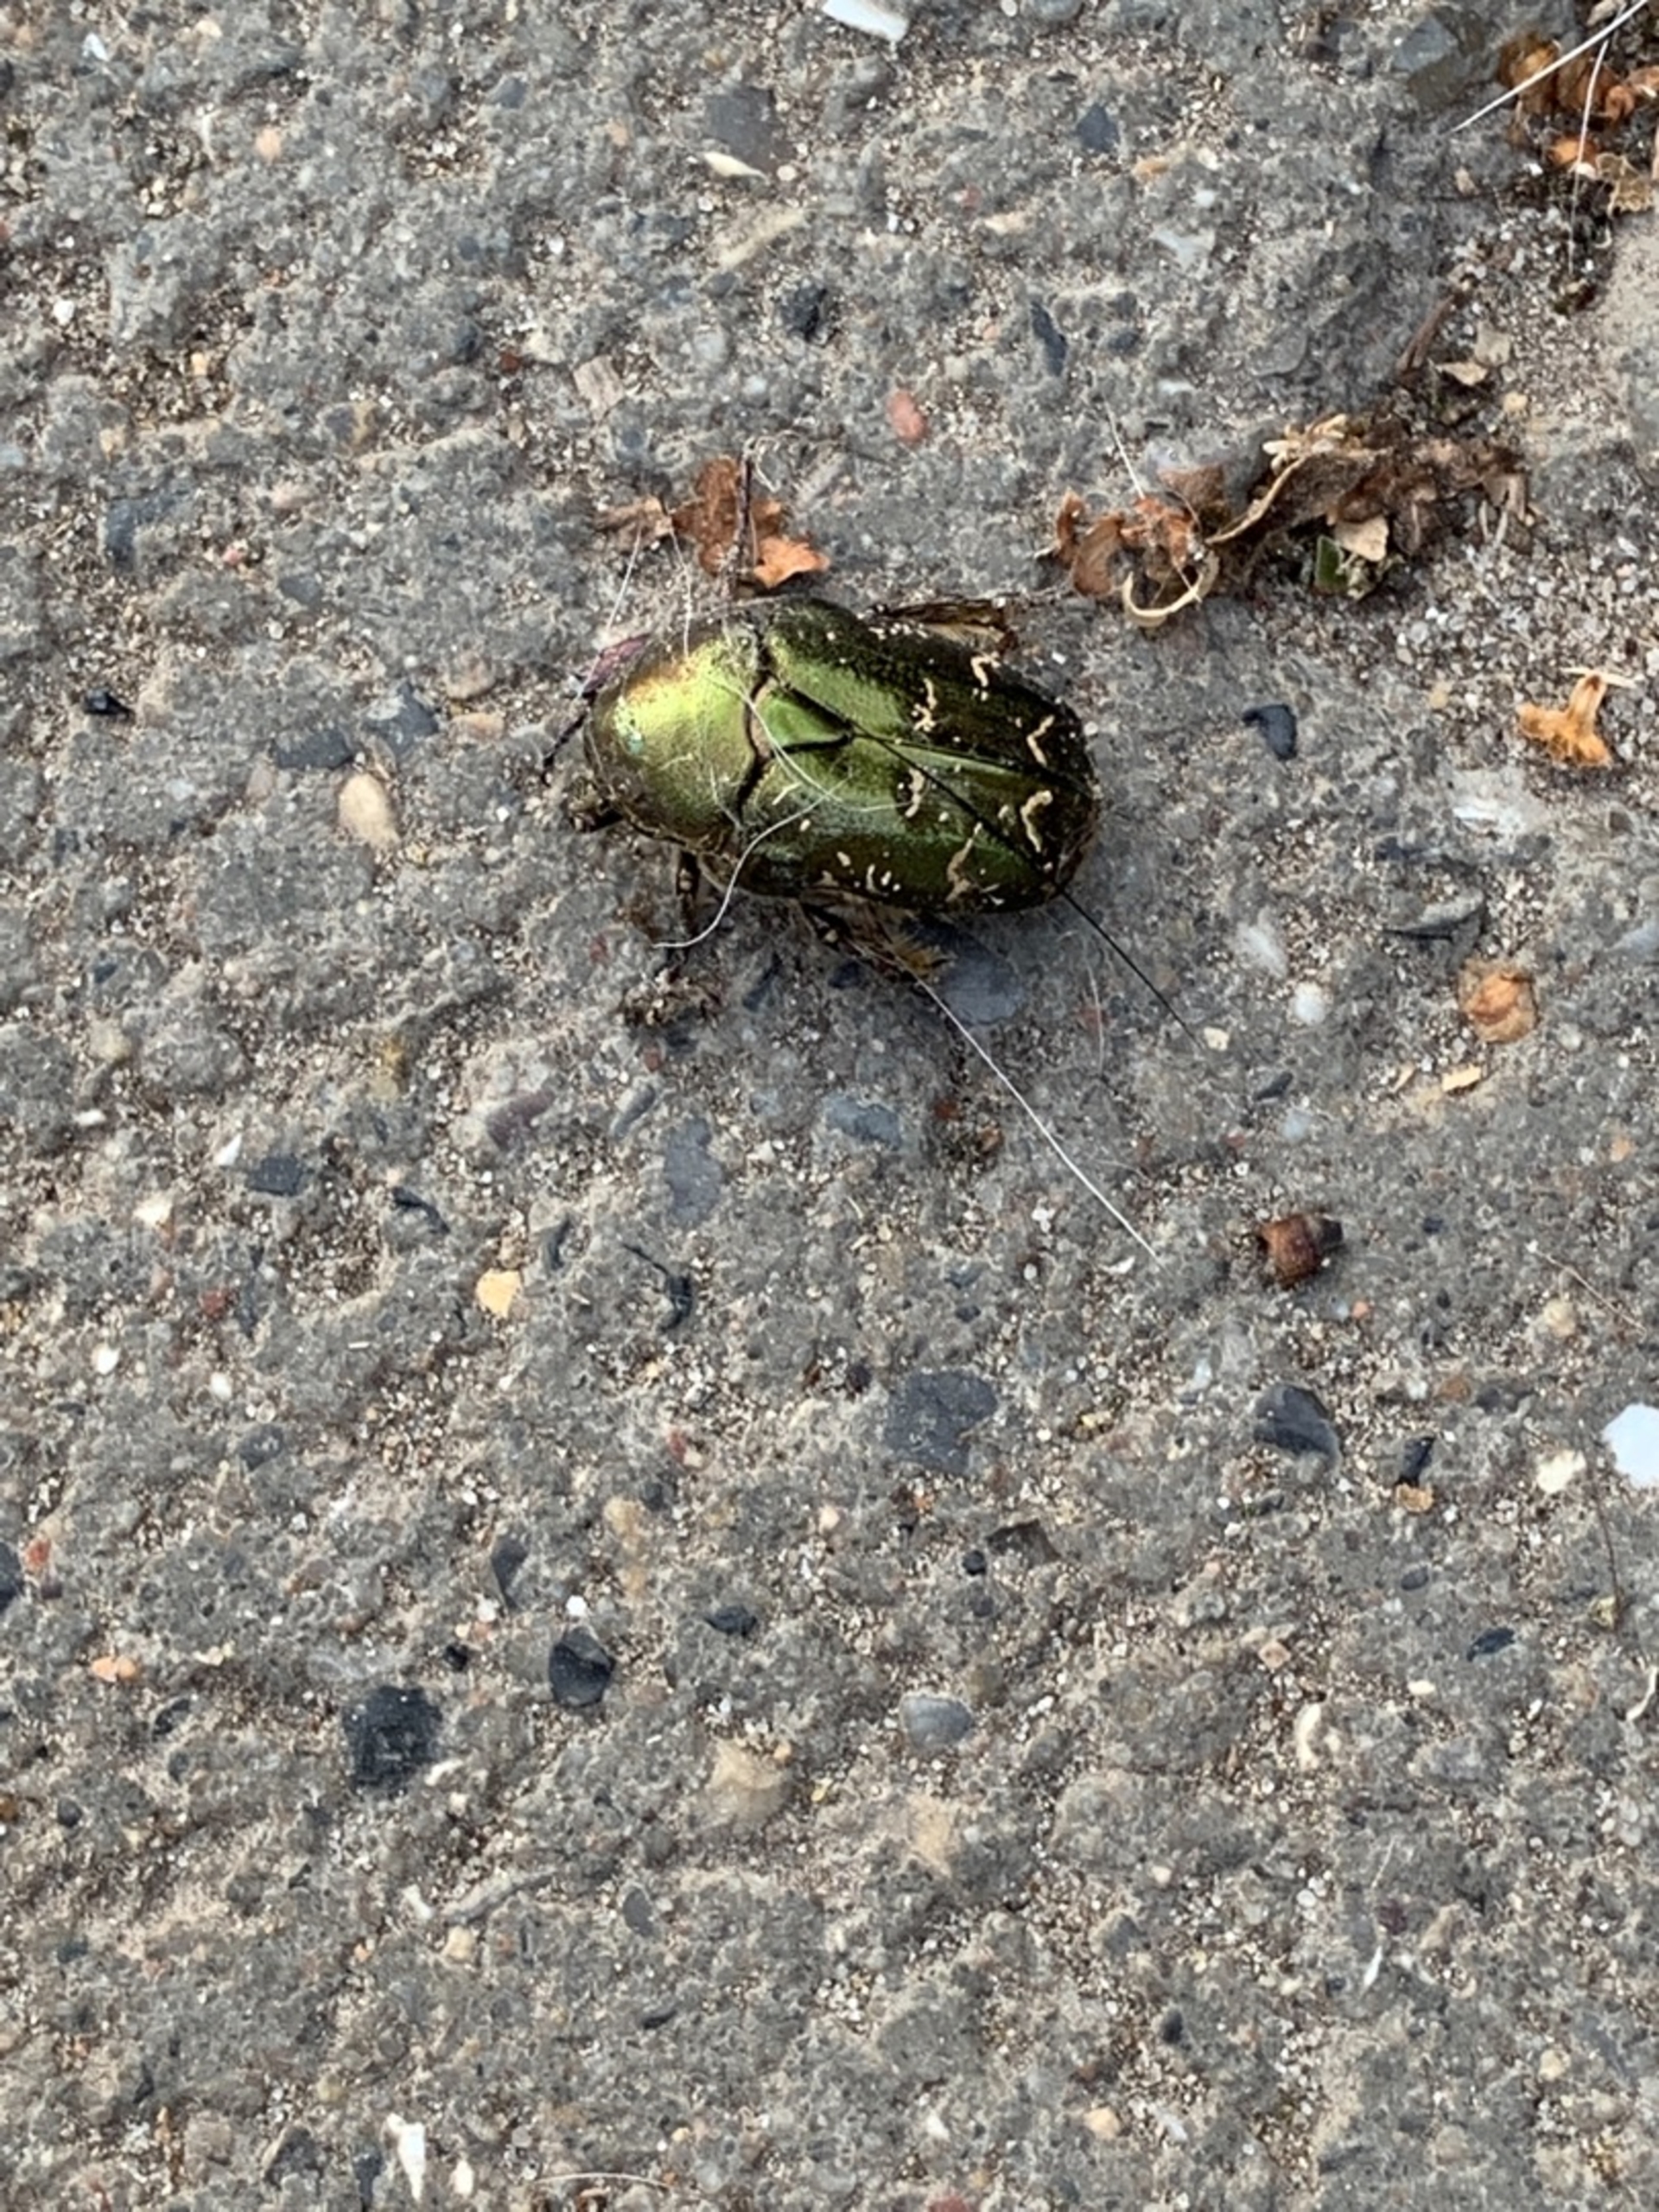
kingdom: Animalia
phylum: Arthropoda
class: Insecta
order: Coleoptera
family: Scarabaeidae
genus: Protaetia
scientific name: Protaetia cuprea
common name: Kobberguldbasse
